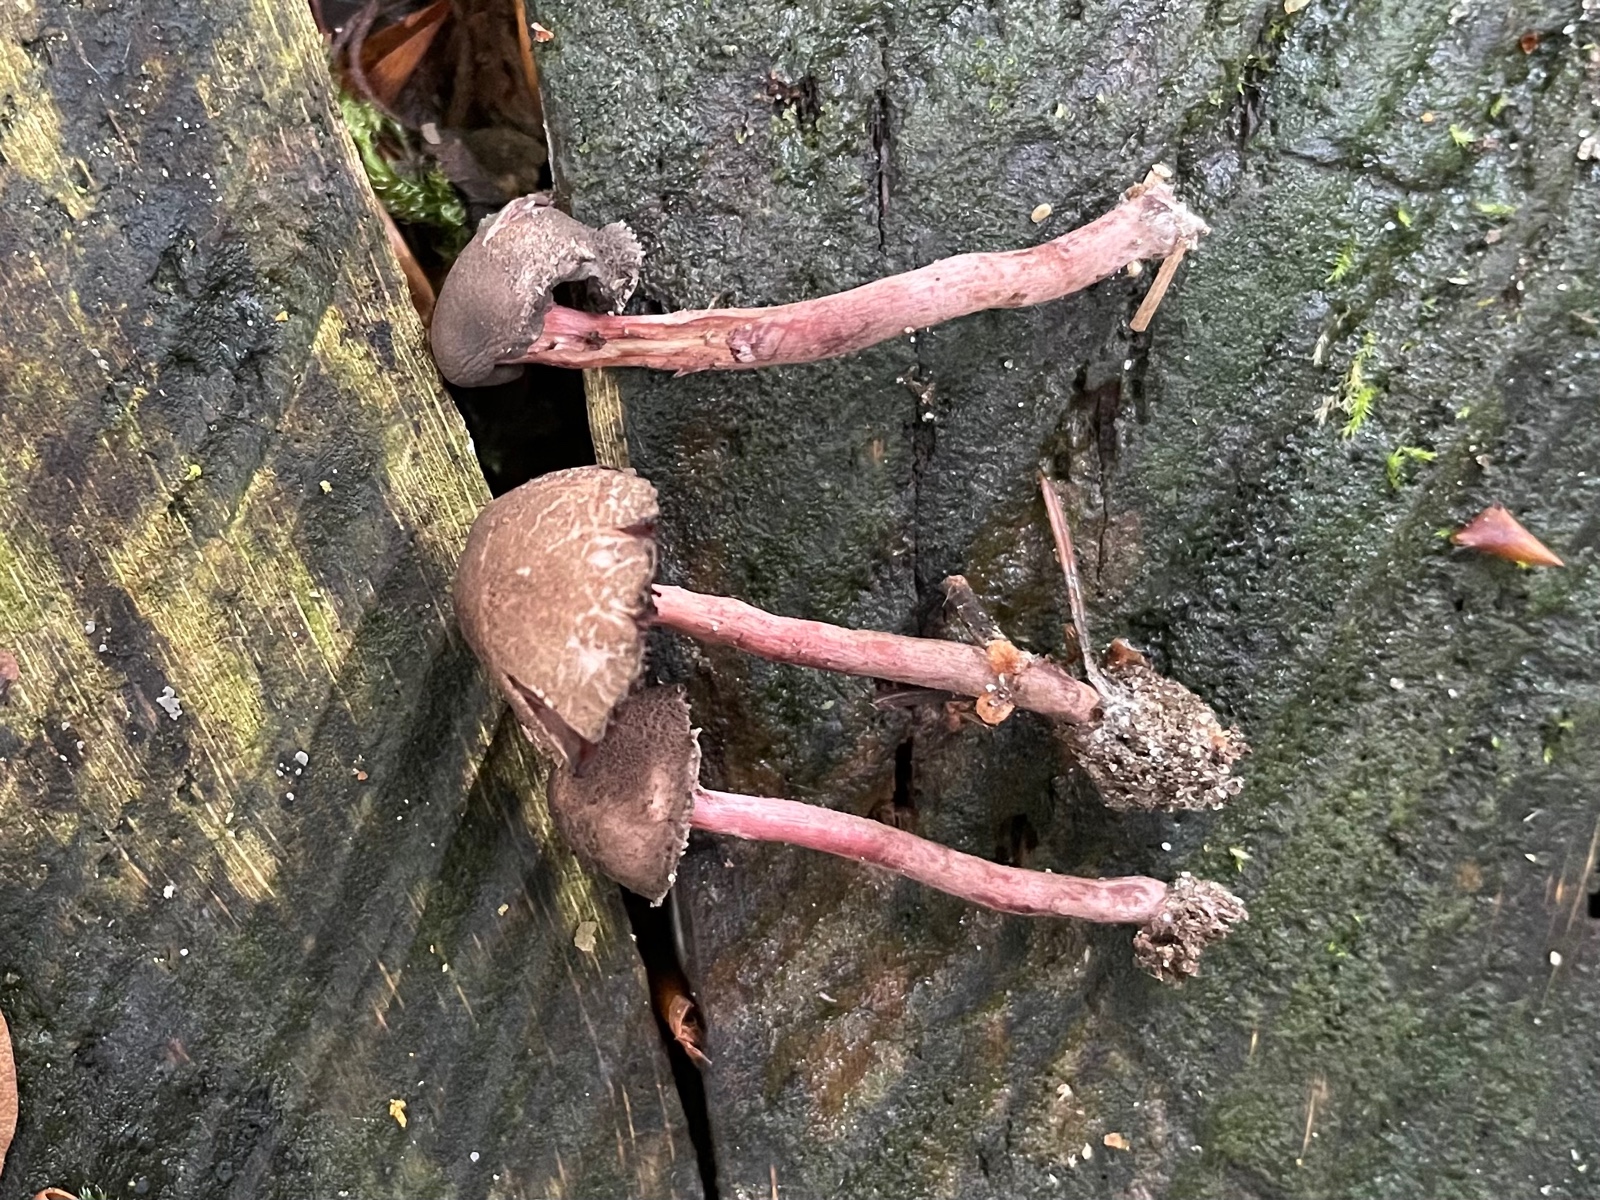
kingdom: Fungi
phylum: Basidiomycota
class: Agaricomycetes
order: Agaricales
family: Agaricaceae
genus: Melanophyllum
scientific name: Melanophyllum haematospermum
